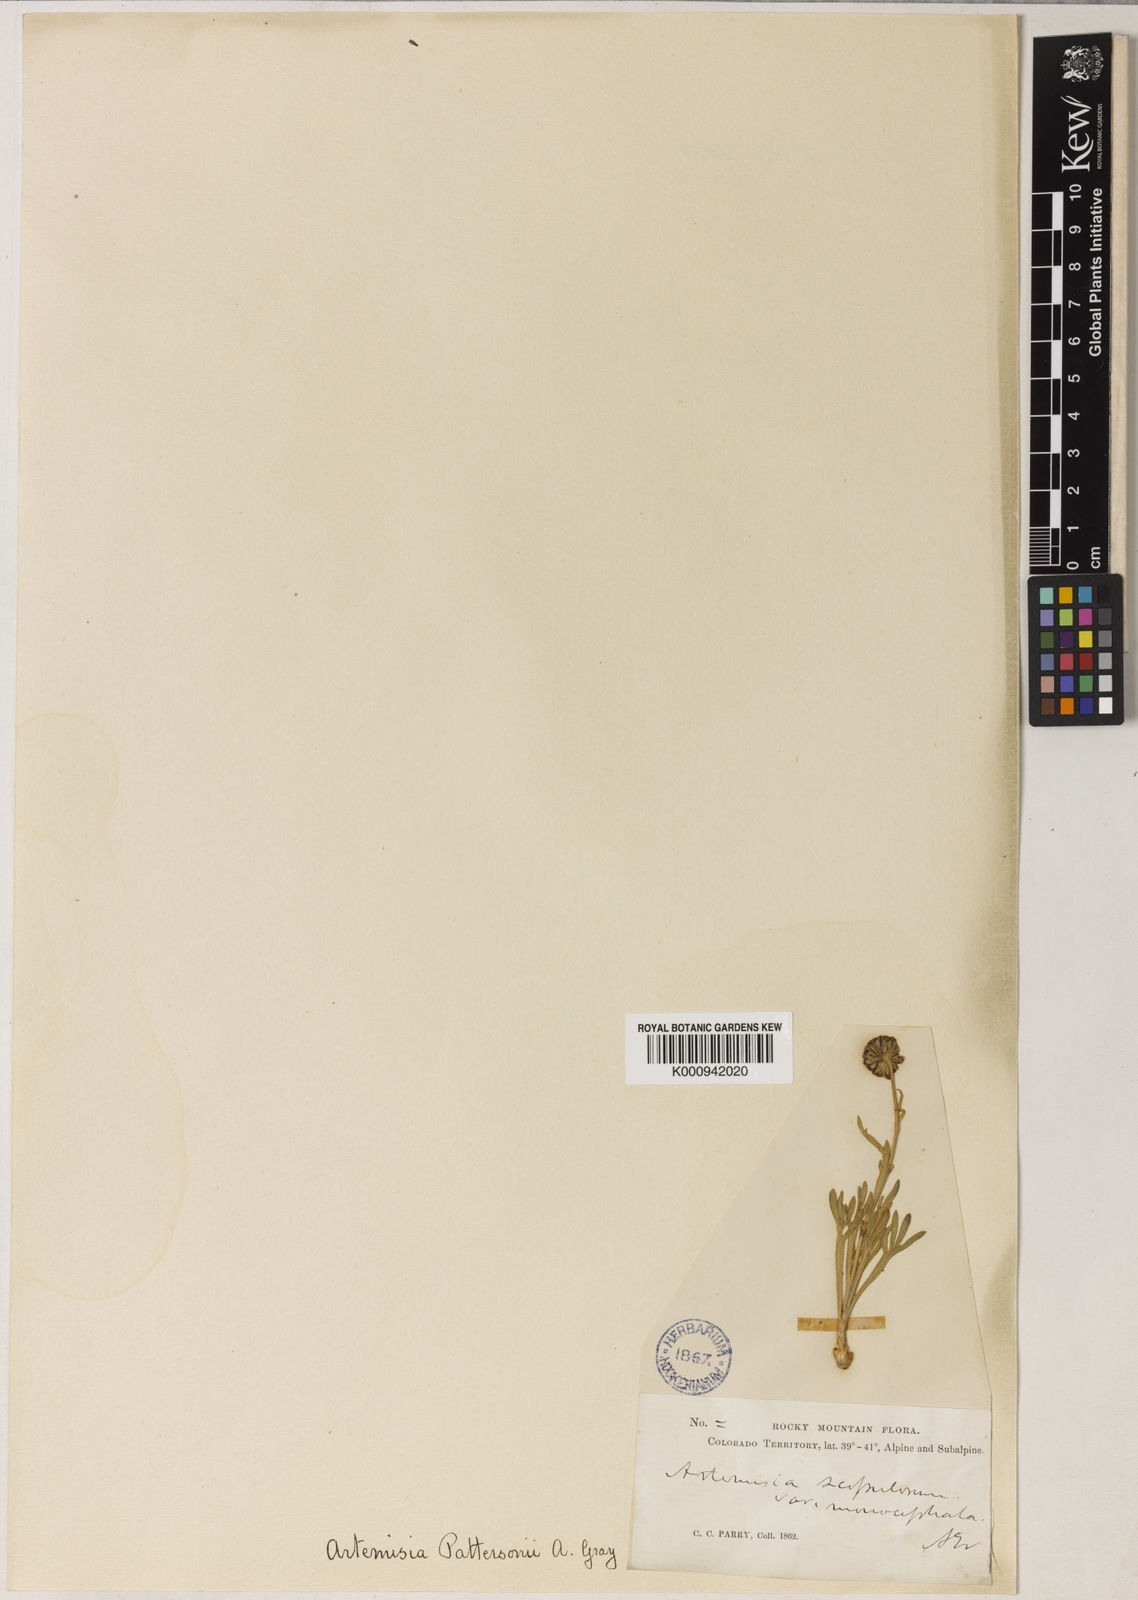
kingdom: Plantae
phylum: Tracheophyta
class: Magnoliopsida
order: Asterales
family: Asteraceae
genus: Delwiensia
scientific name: Delwiensia pattersonii
